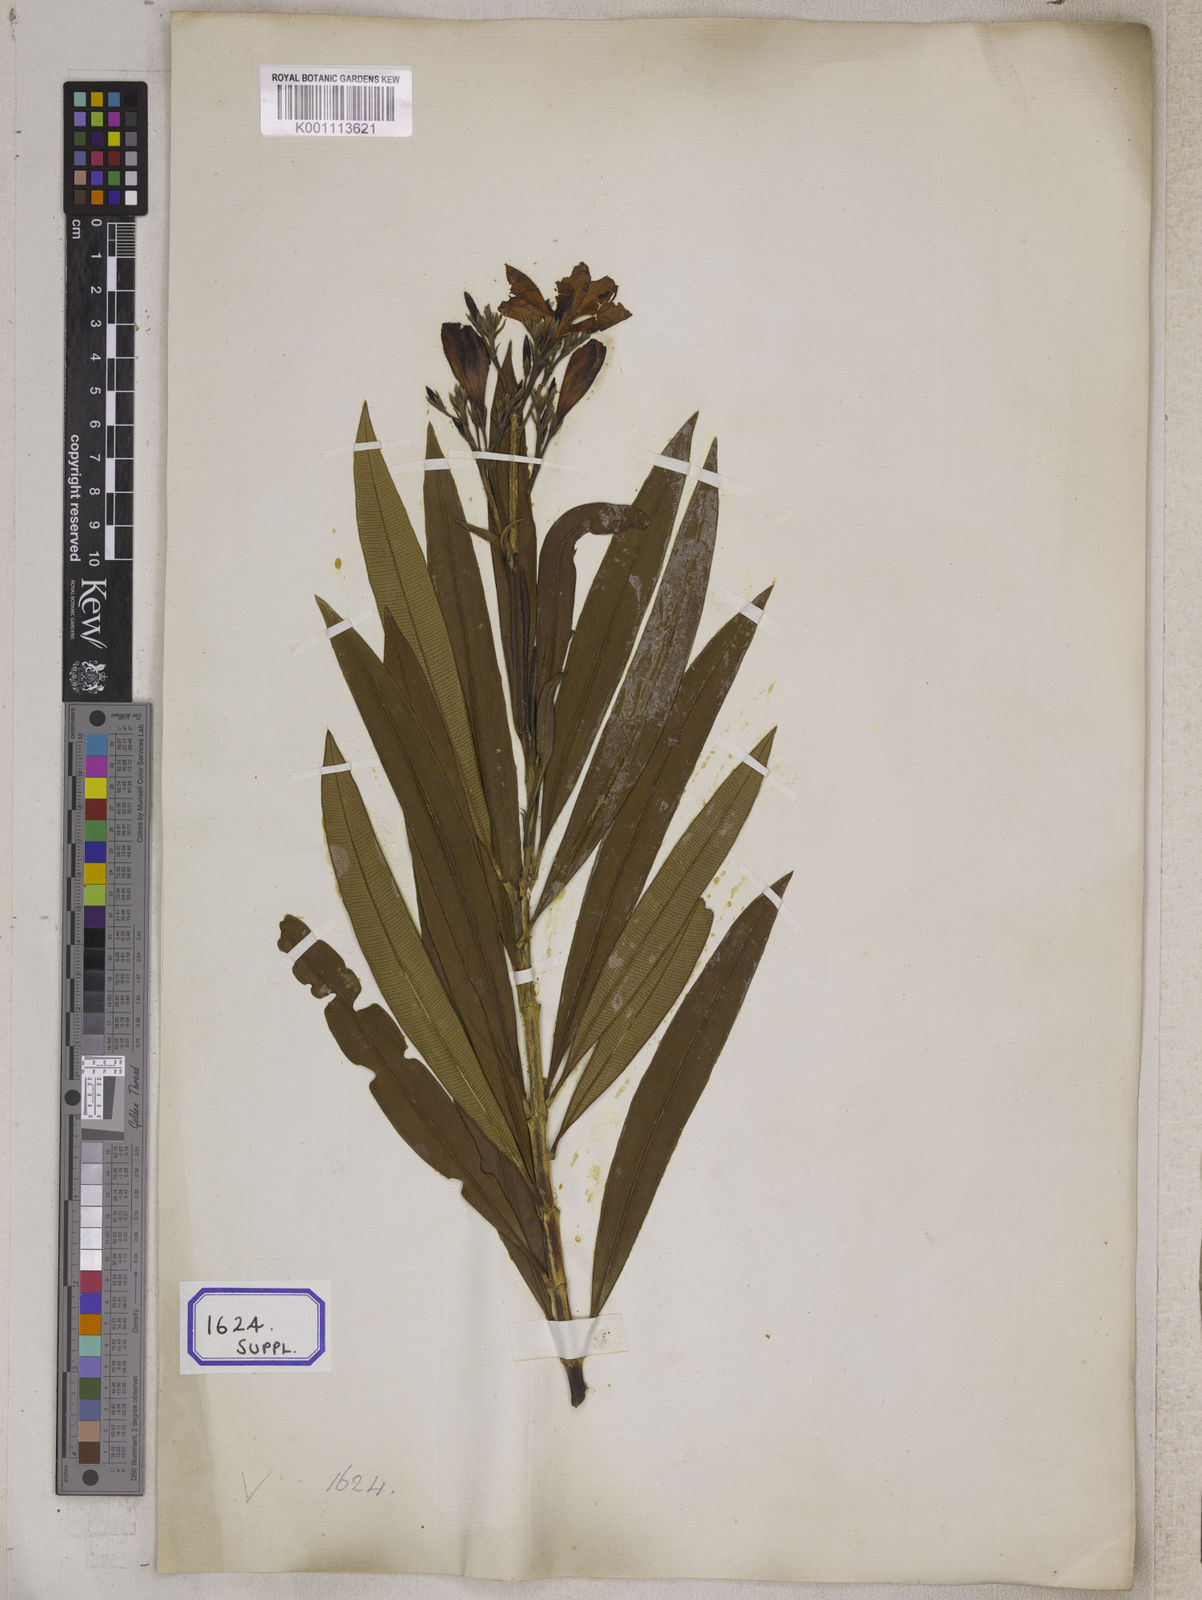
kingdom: Plantae
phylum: Tracheophyta
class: Magnoliopsida
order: Gentianales
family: Apocynaceae
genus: Nerium
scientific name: Nerium indicum
